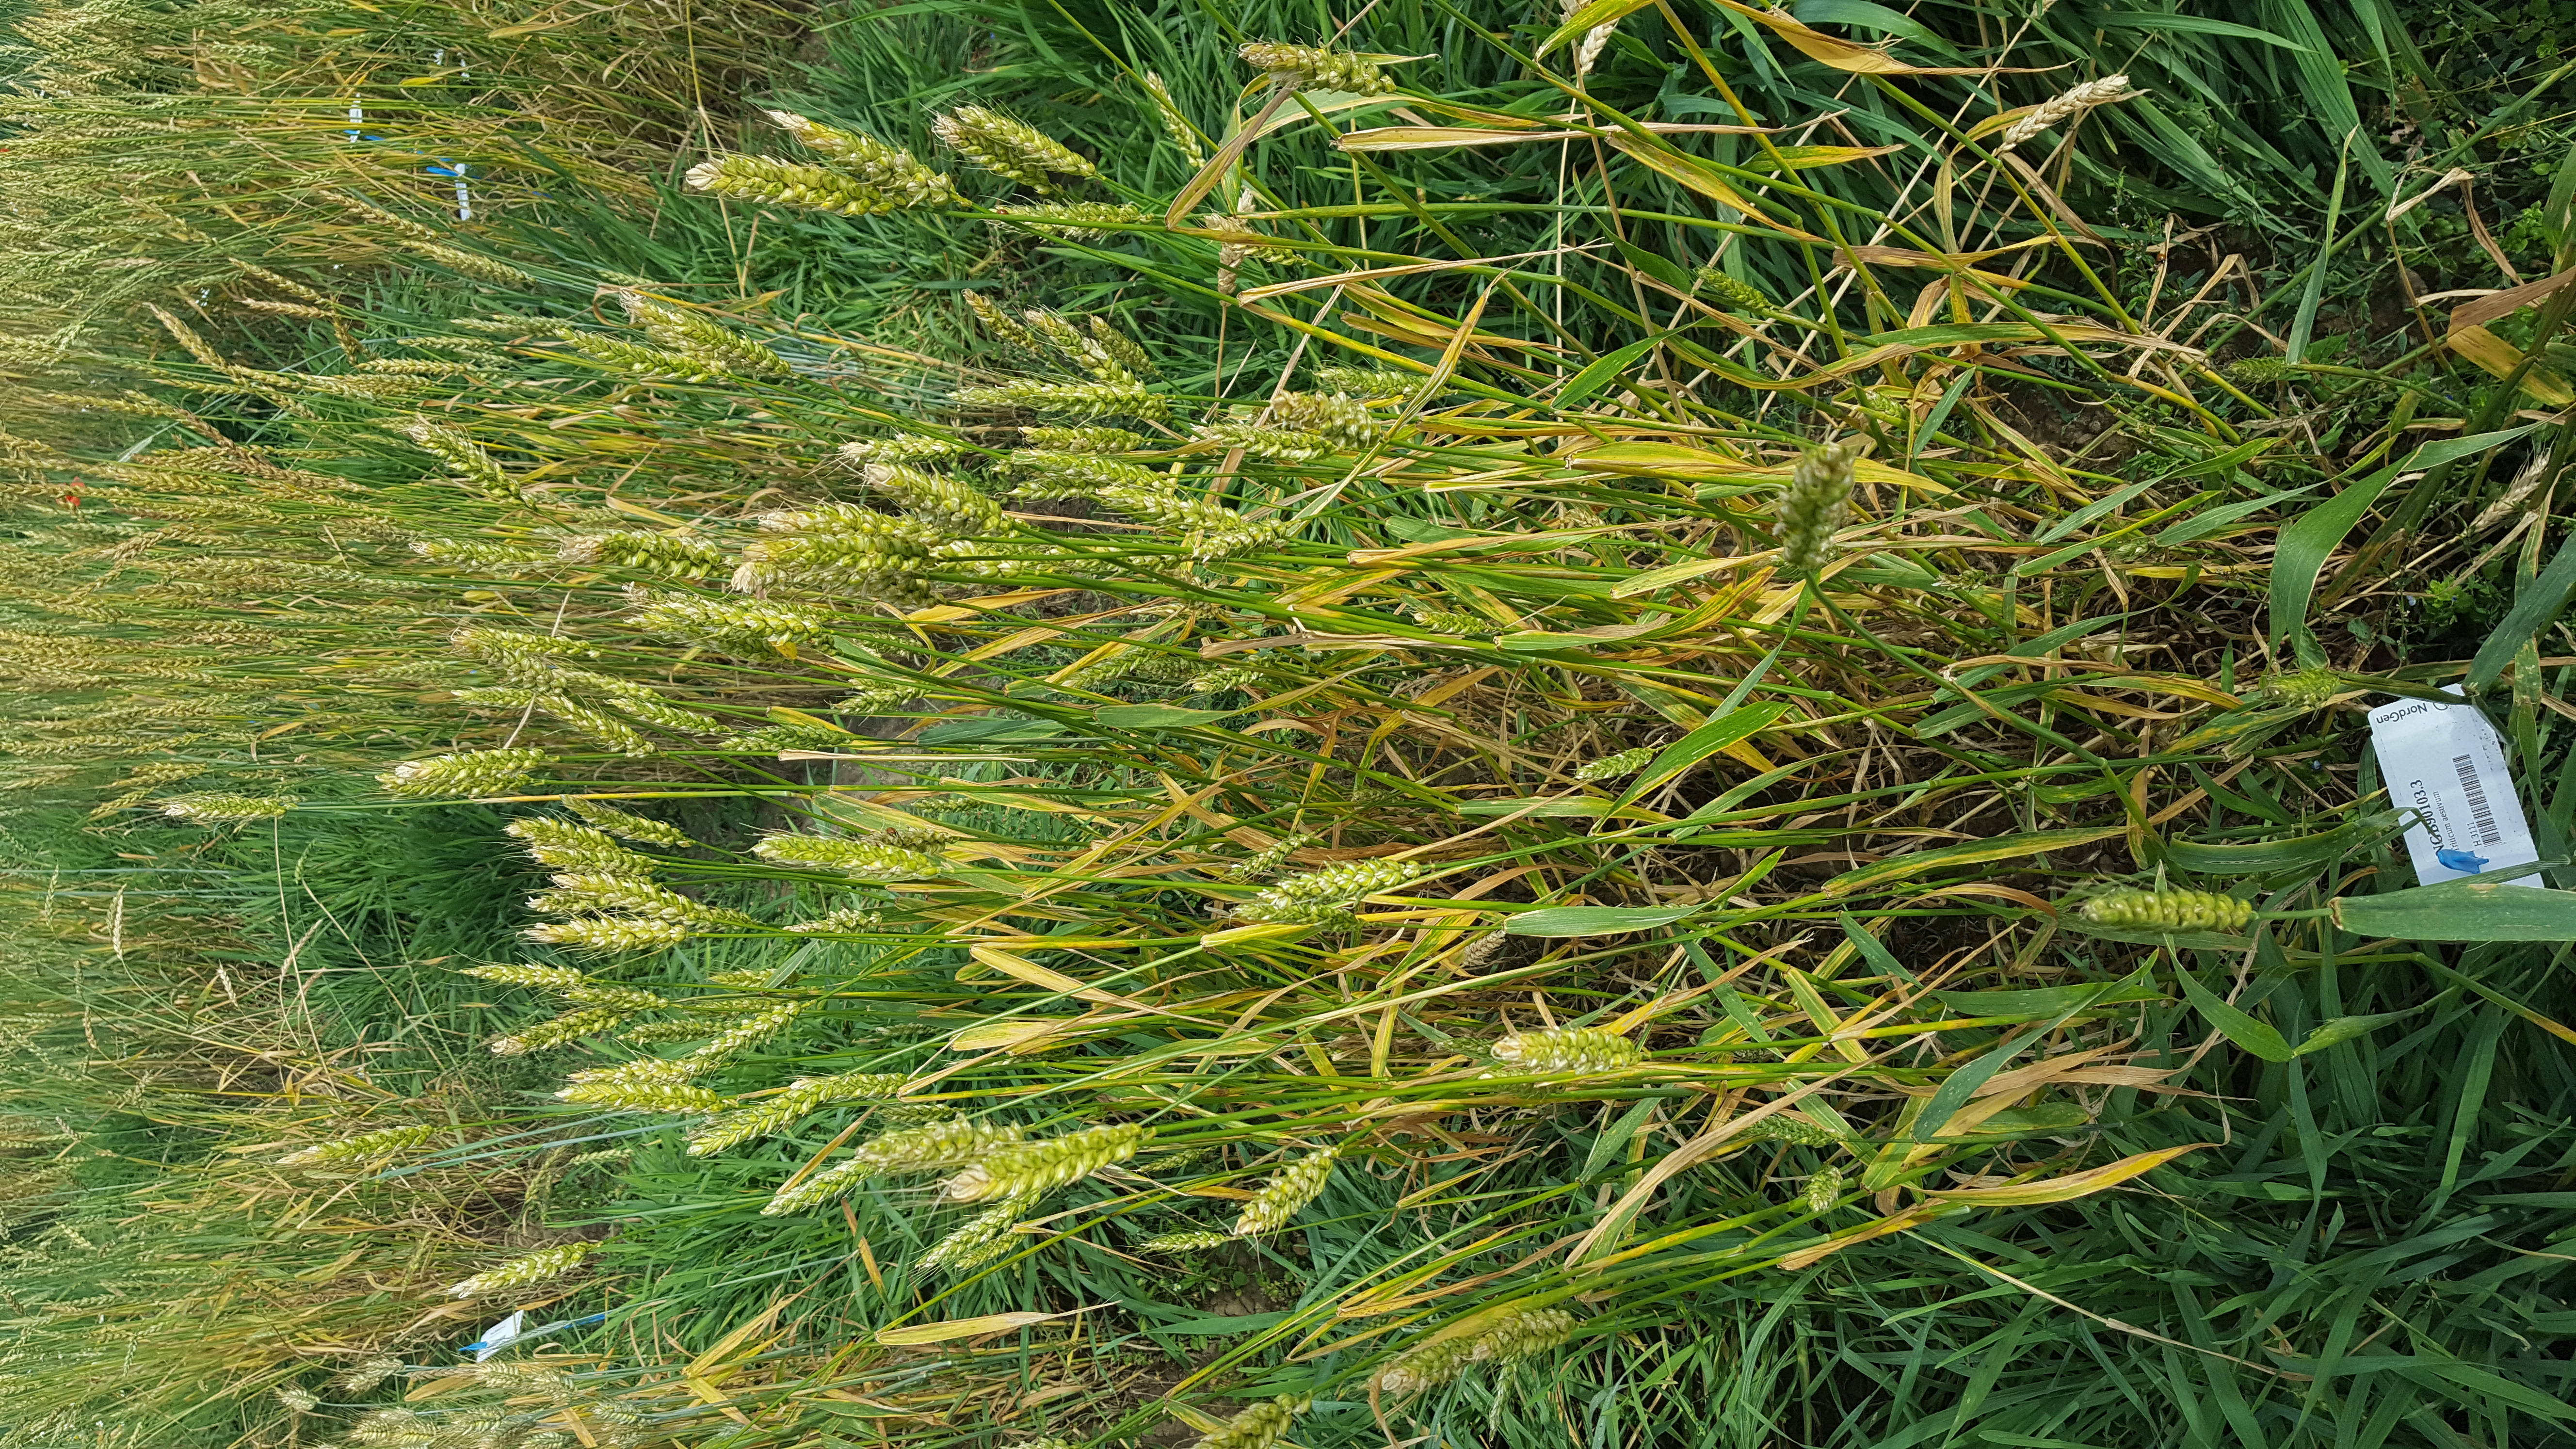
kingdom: Plantae
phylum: Tracheophyta
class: Liliopsida
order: Poales
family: Poaceae
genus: Triticum
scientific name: Triticum aestivum
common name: Common wheat
